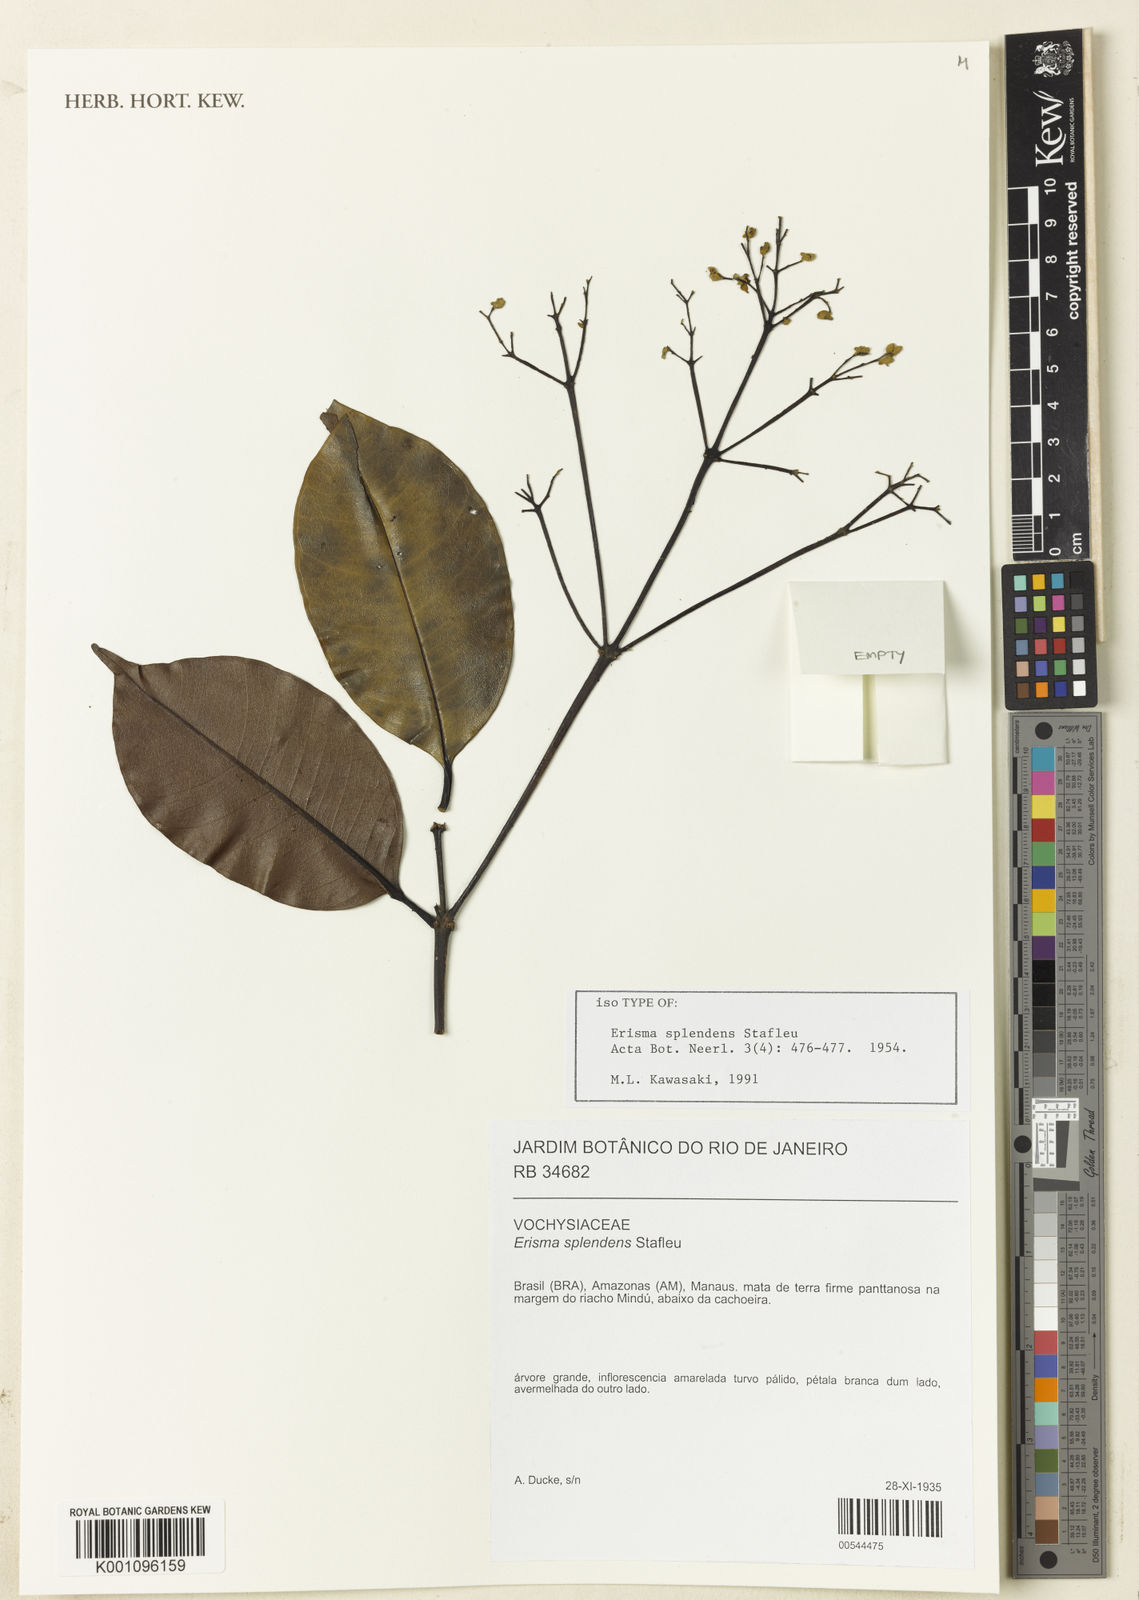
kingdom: Plantae
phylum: Tracheophyta
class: Magnoliopsida
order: Myrtales
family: Vochysiaceae
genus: Erisma
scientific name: Erisma splendens
